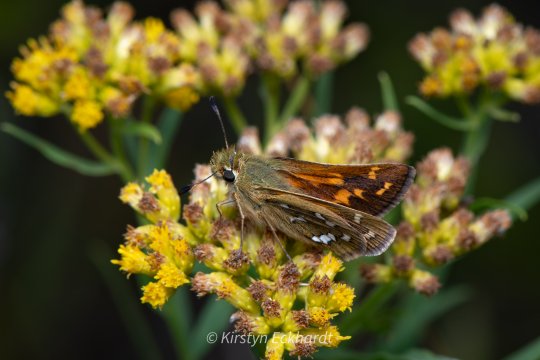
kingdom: Animalia
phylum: Arthropoda
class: Insecta
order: Lepidoptera
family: Hesperiidae
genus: Hesperia
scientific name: Hesperia comma
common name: Common Branded Skipper
